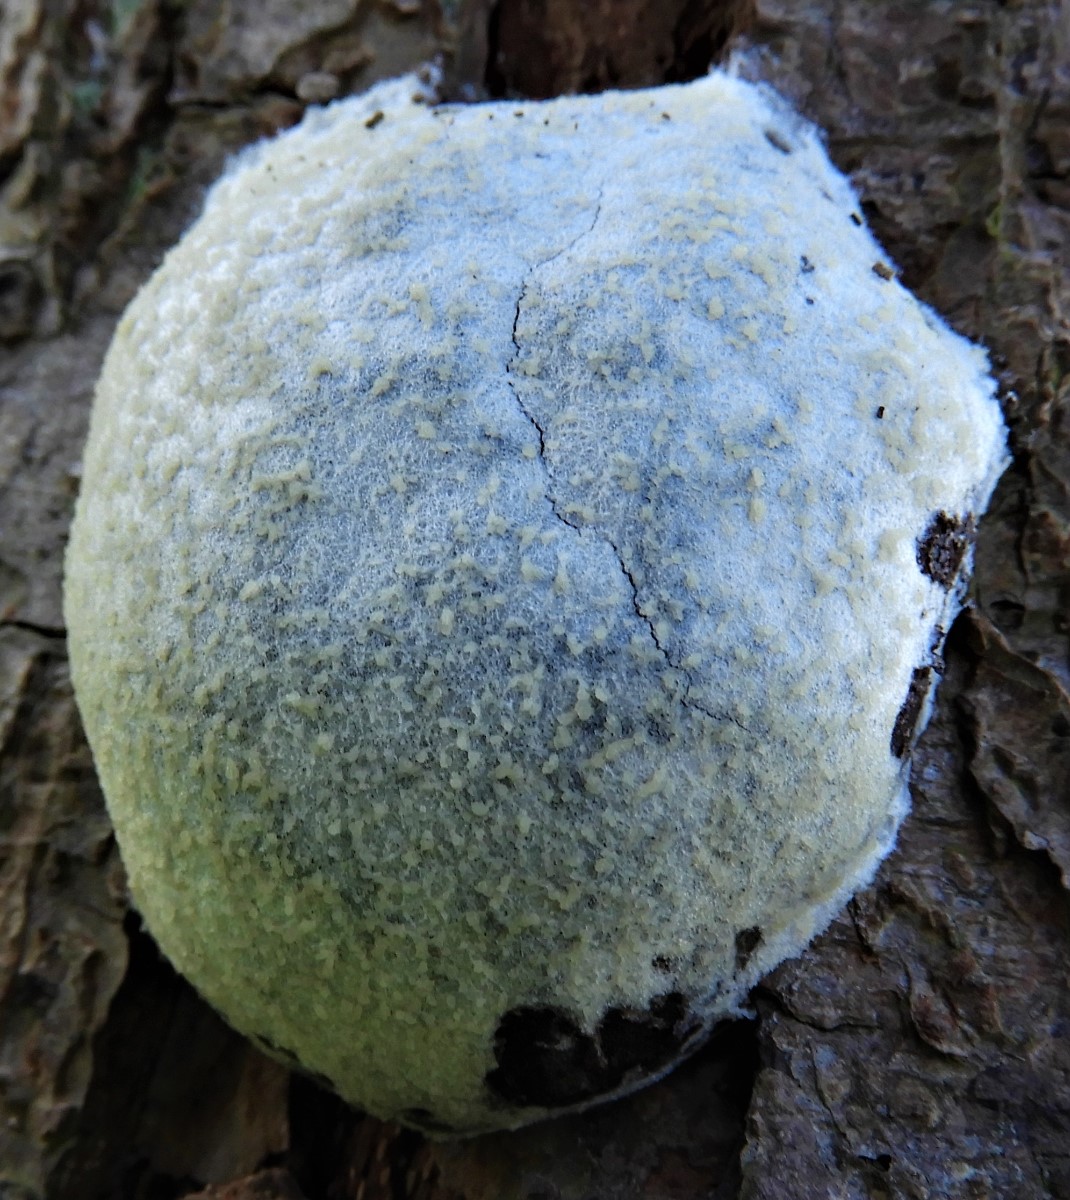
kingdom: Protozoa
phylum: Mycetozoa
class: Myxomycetes
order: Cribrariales
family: Tubiferaceae
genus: Reticularia
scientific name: Reticularia lycoperdon
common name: skinnende støvpude
